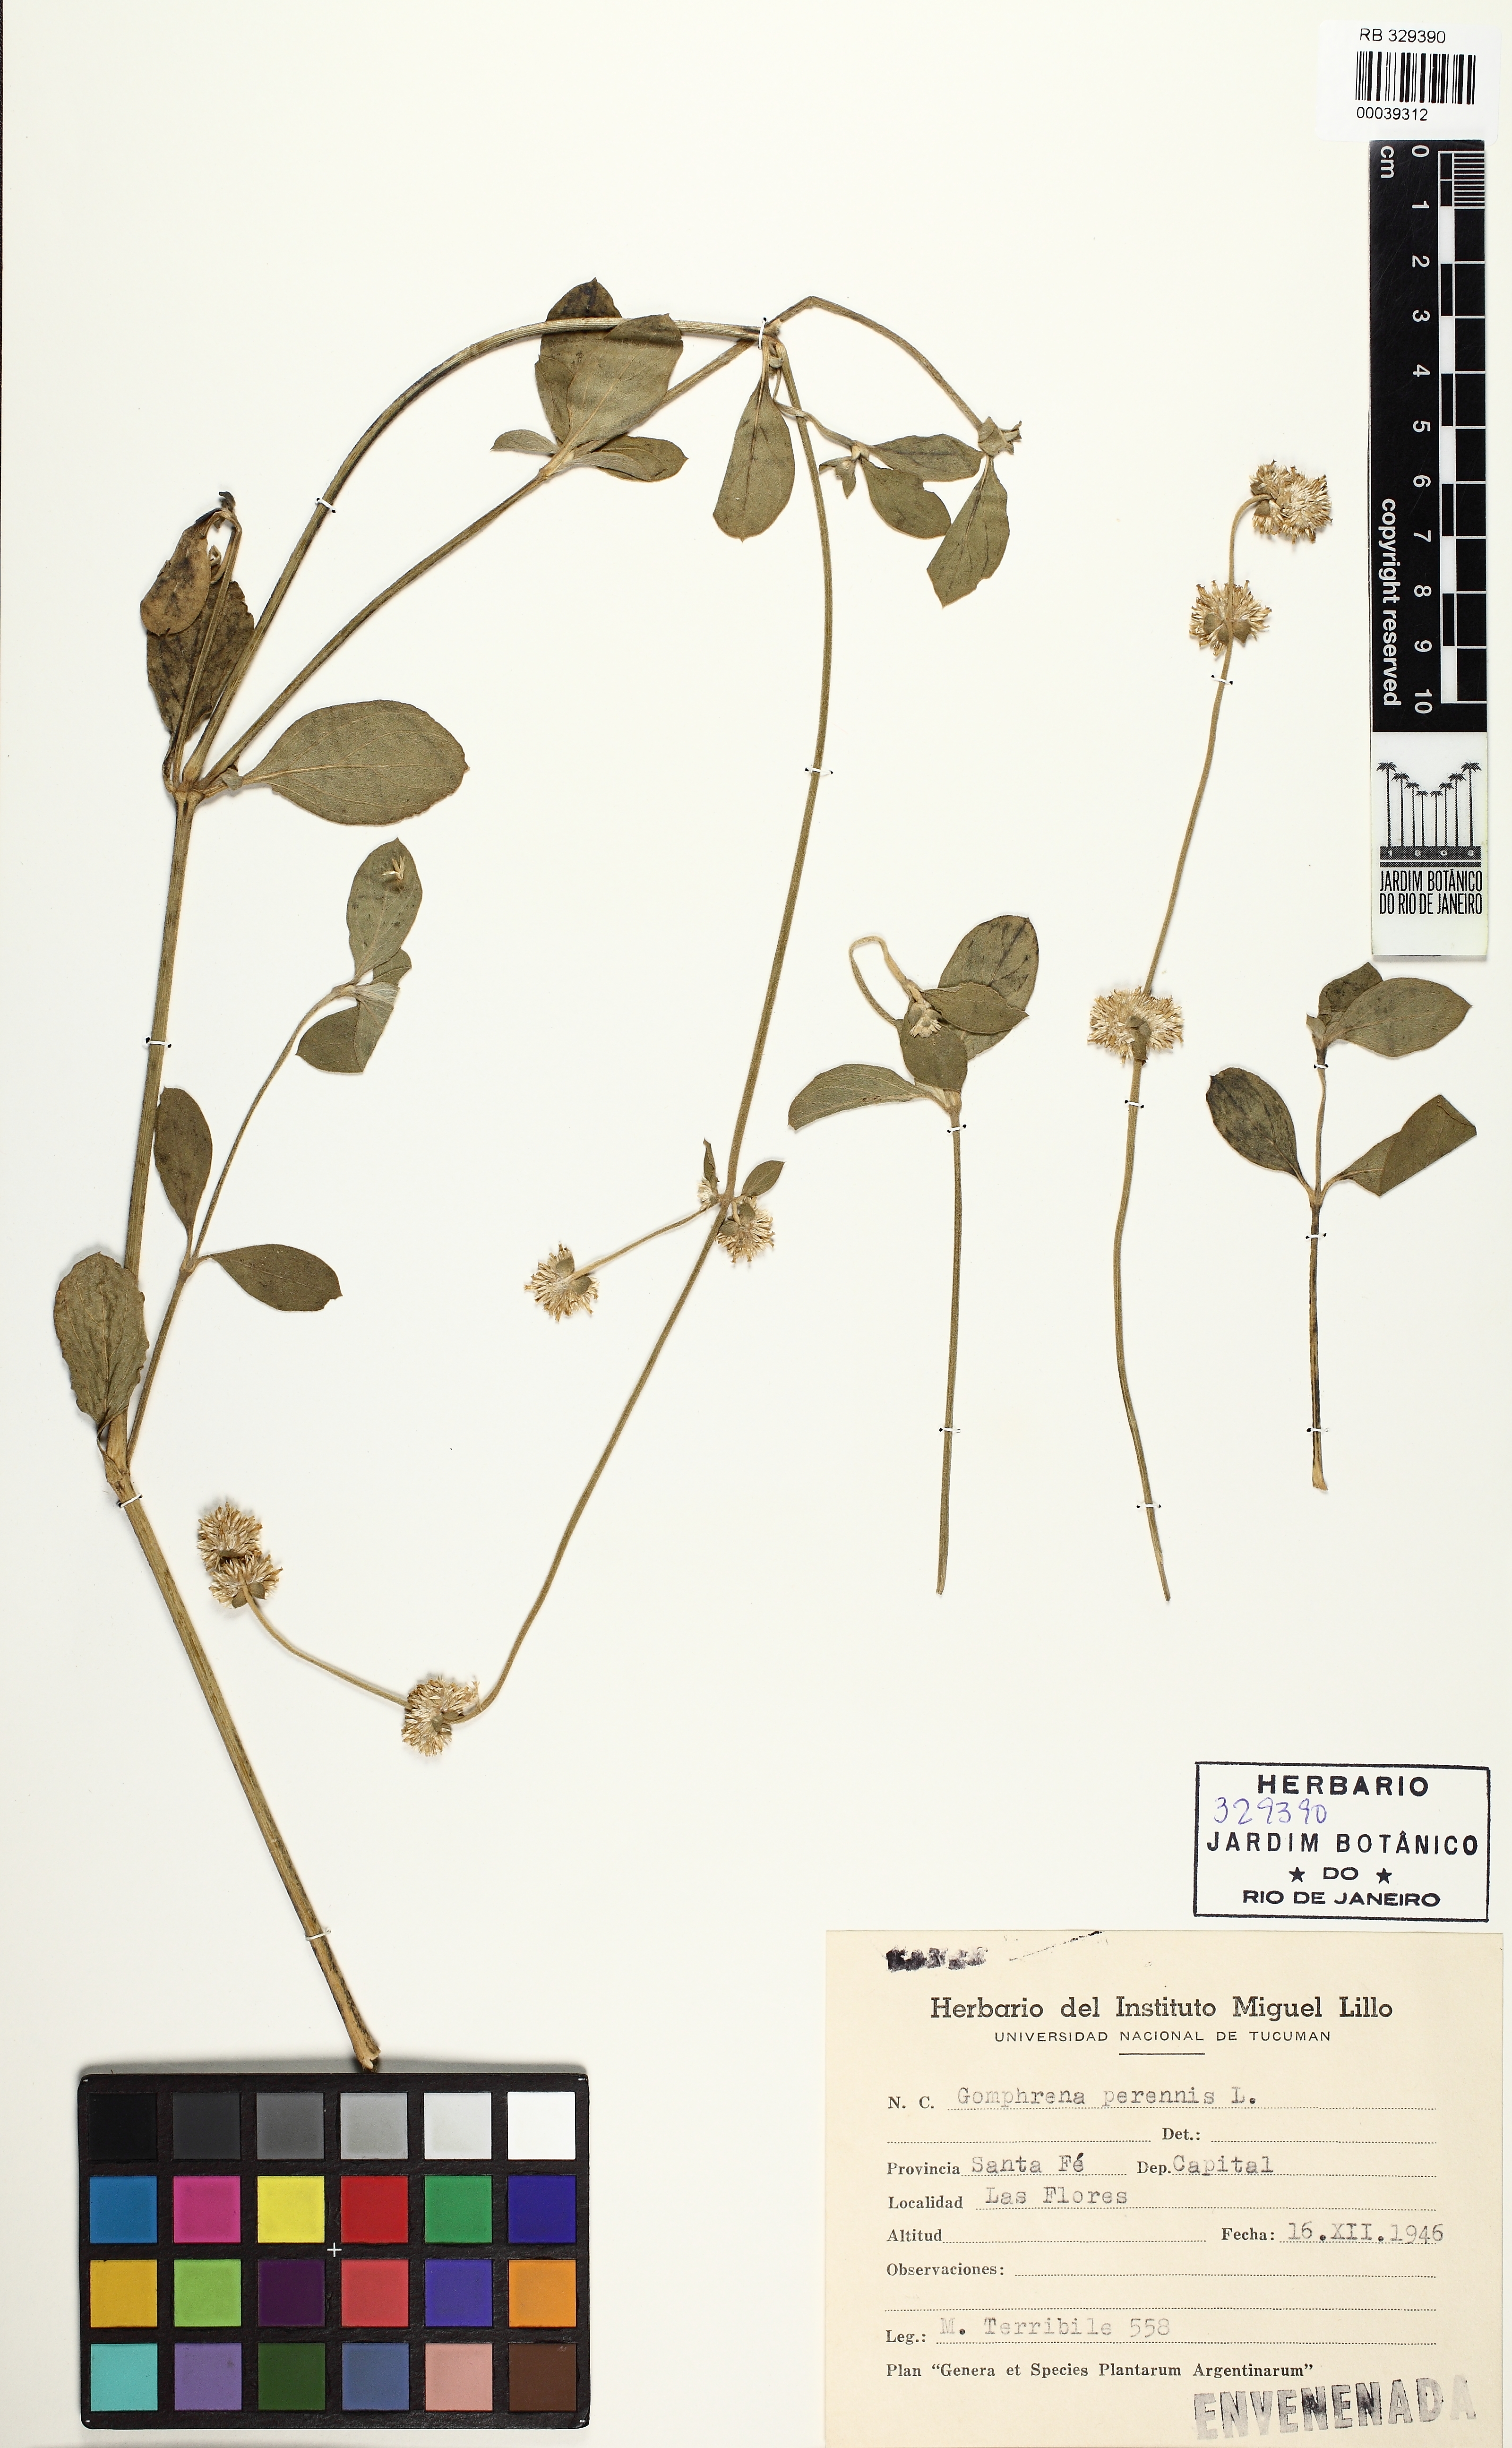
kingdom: Plantae
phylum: Tracheophyta
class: Magnoliopsida
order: Caryophyllales
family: Amaranthaceae
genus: Gomphrena
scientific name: Gomphrena perennis
